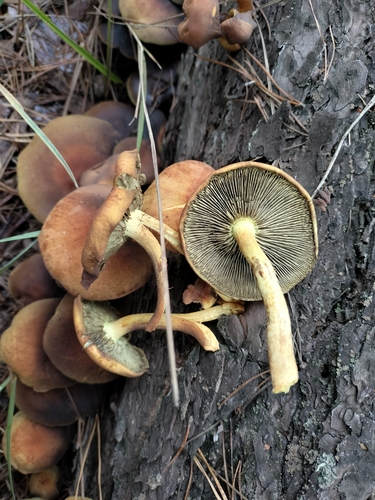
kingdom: Fungi
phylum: Basidiomycota
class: Agaricomycetes
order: Agaricales
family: Strophariaceae
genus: Hypholoma
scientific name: Hypholoma fasciculare
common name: Sulphur tuft
